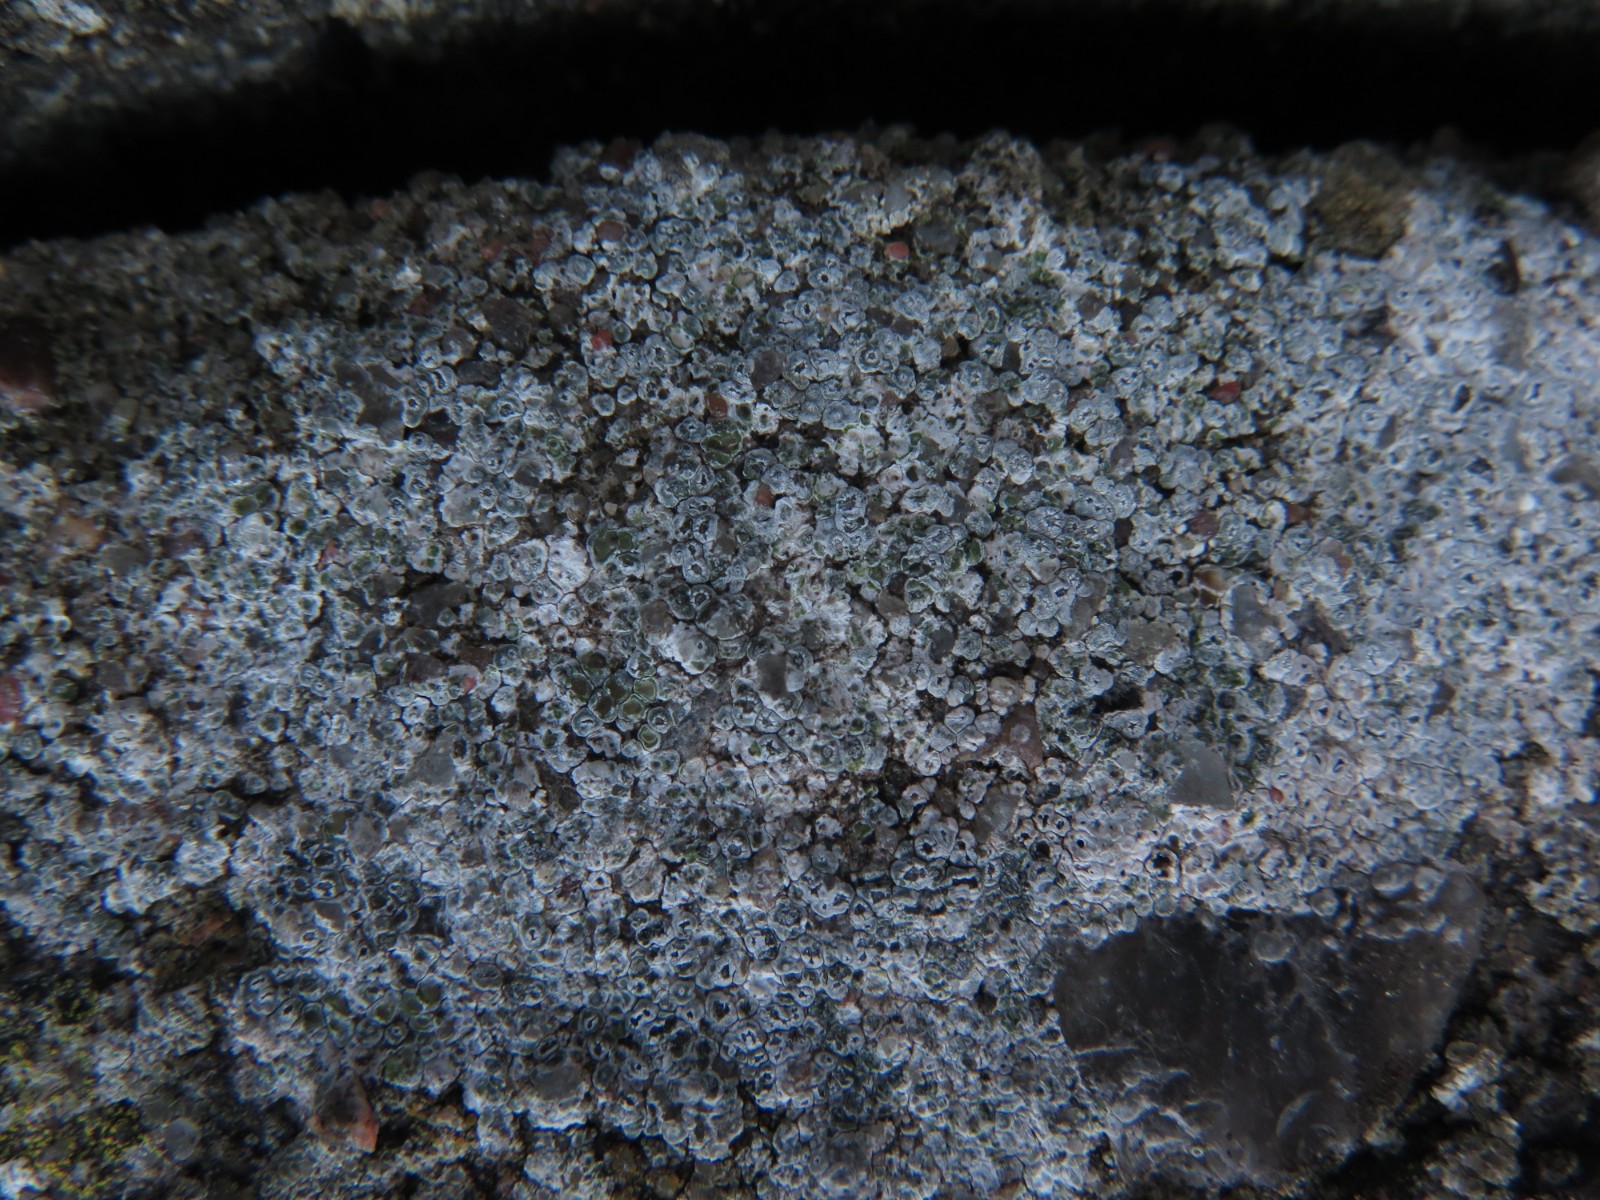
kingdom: Fungi
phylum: Ascomycota
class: Lecanoromycetes
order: Pertusariales
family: Megasporaceae
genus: Circinaria
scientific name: Circinaria contorta
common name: indviklet hulskivelav
